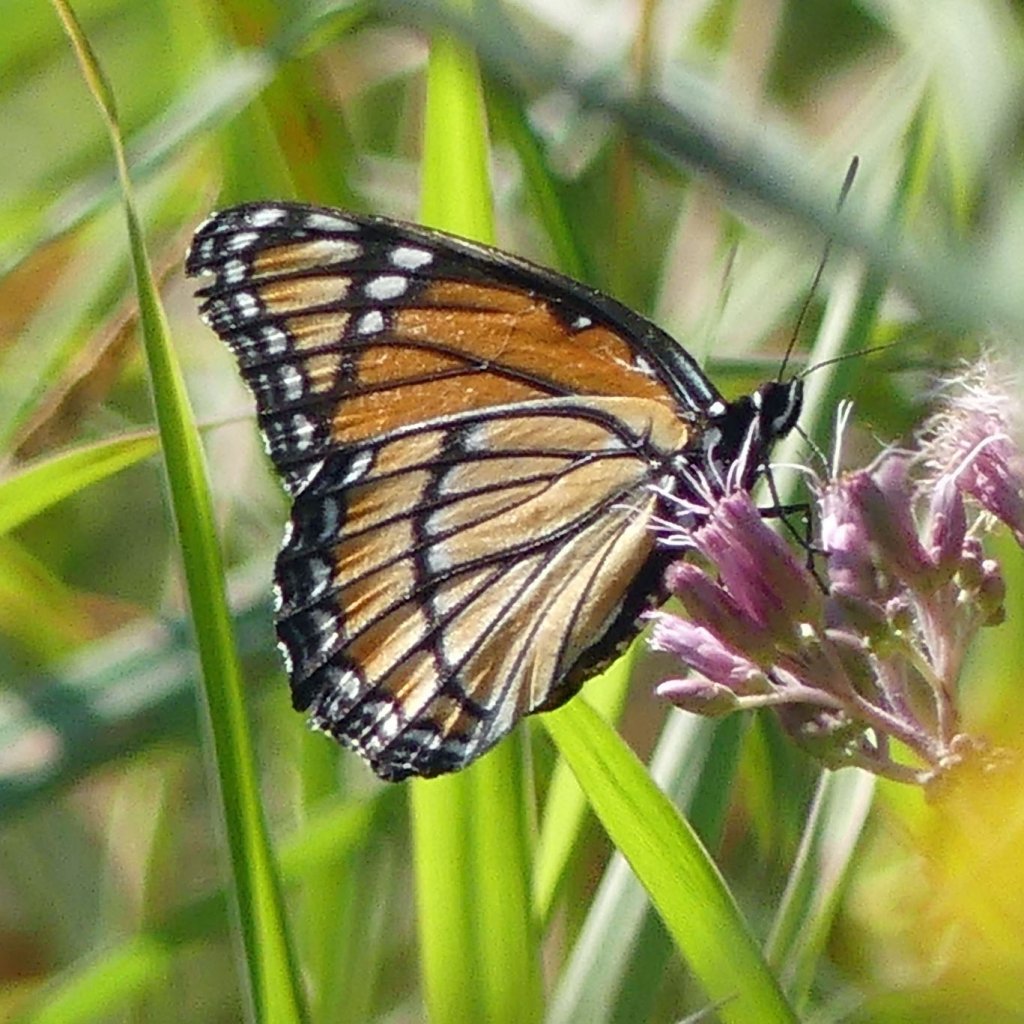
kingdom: Animalia
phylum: Arthropoda
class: Insecta
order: Lepidoptera
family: Nymphalidae
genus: Limenitis
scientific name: Limenitis archippus
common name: Viceroy
